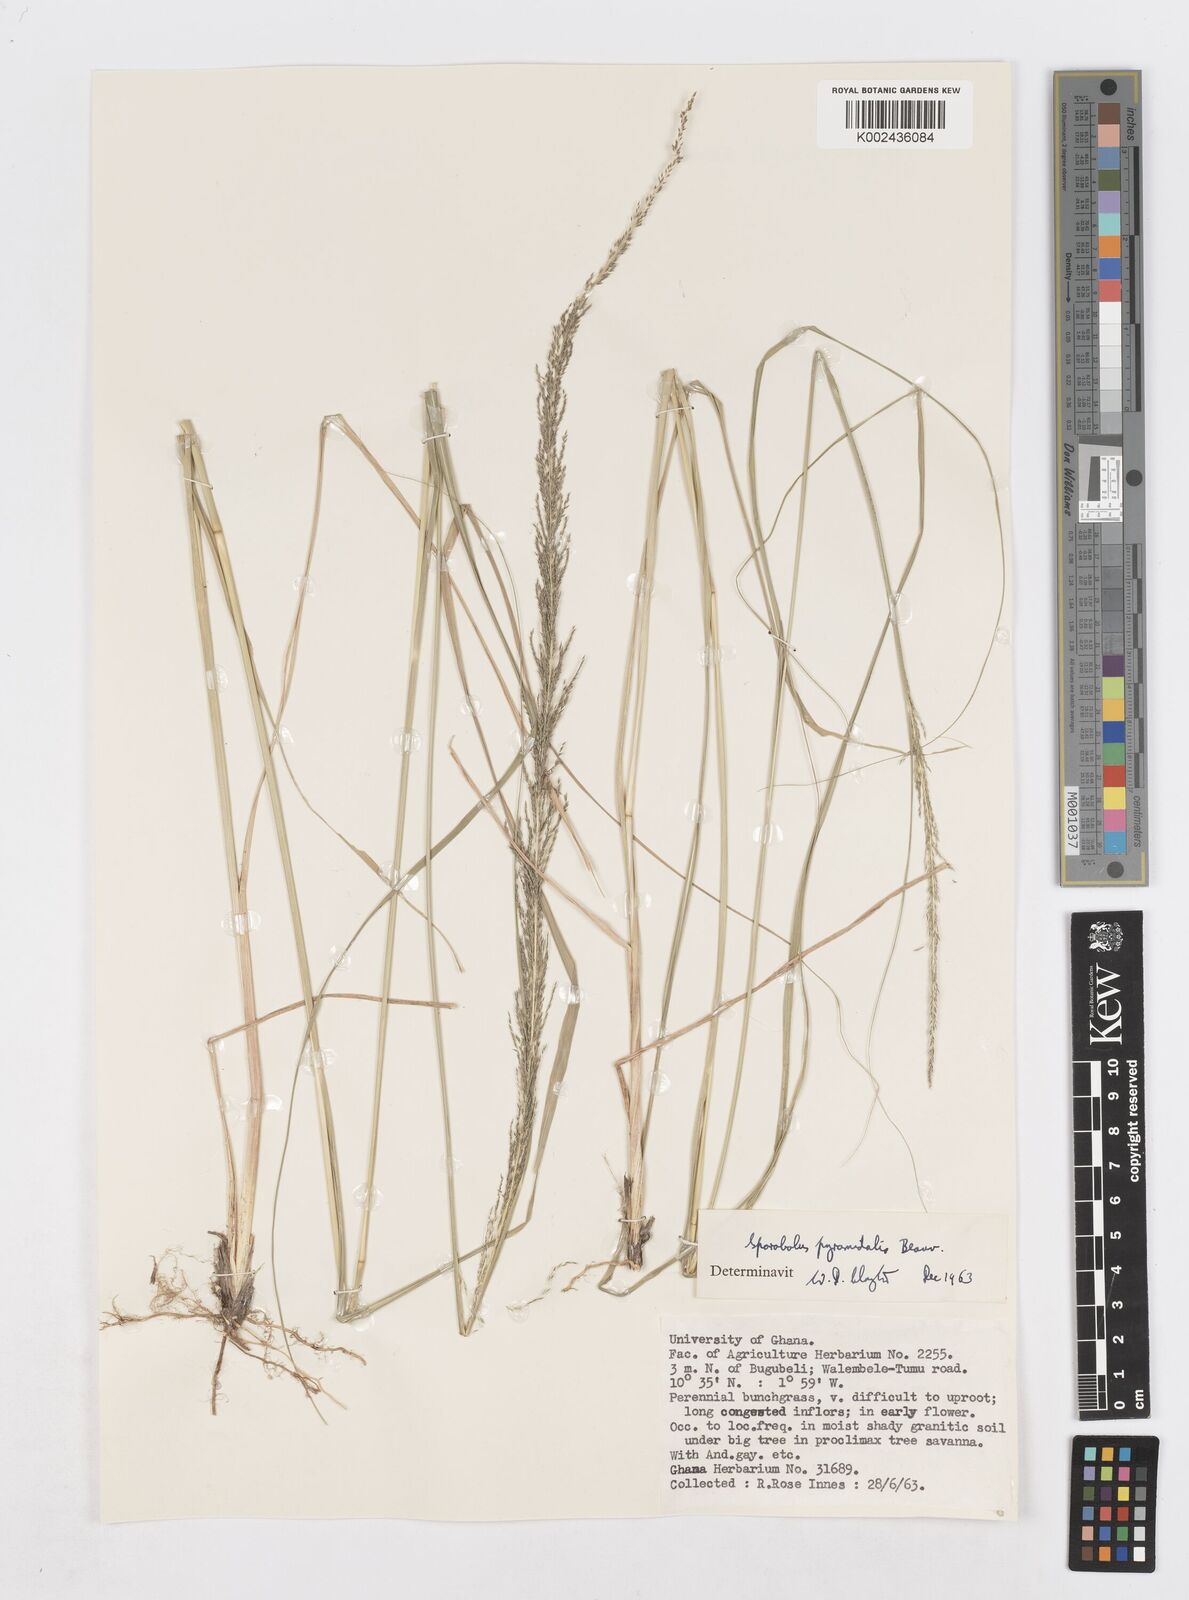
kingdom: Plantae
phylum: Tracheophyta
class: Liliopsida
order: Poales
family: Poaceae
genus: Sporobolus
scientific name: Sporobolus pyramidalis
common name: West indian dropseed
